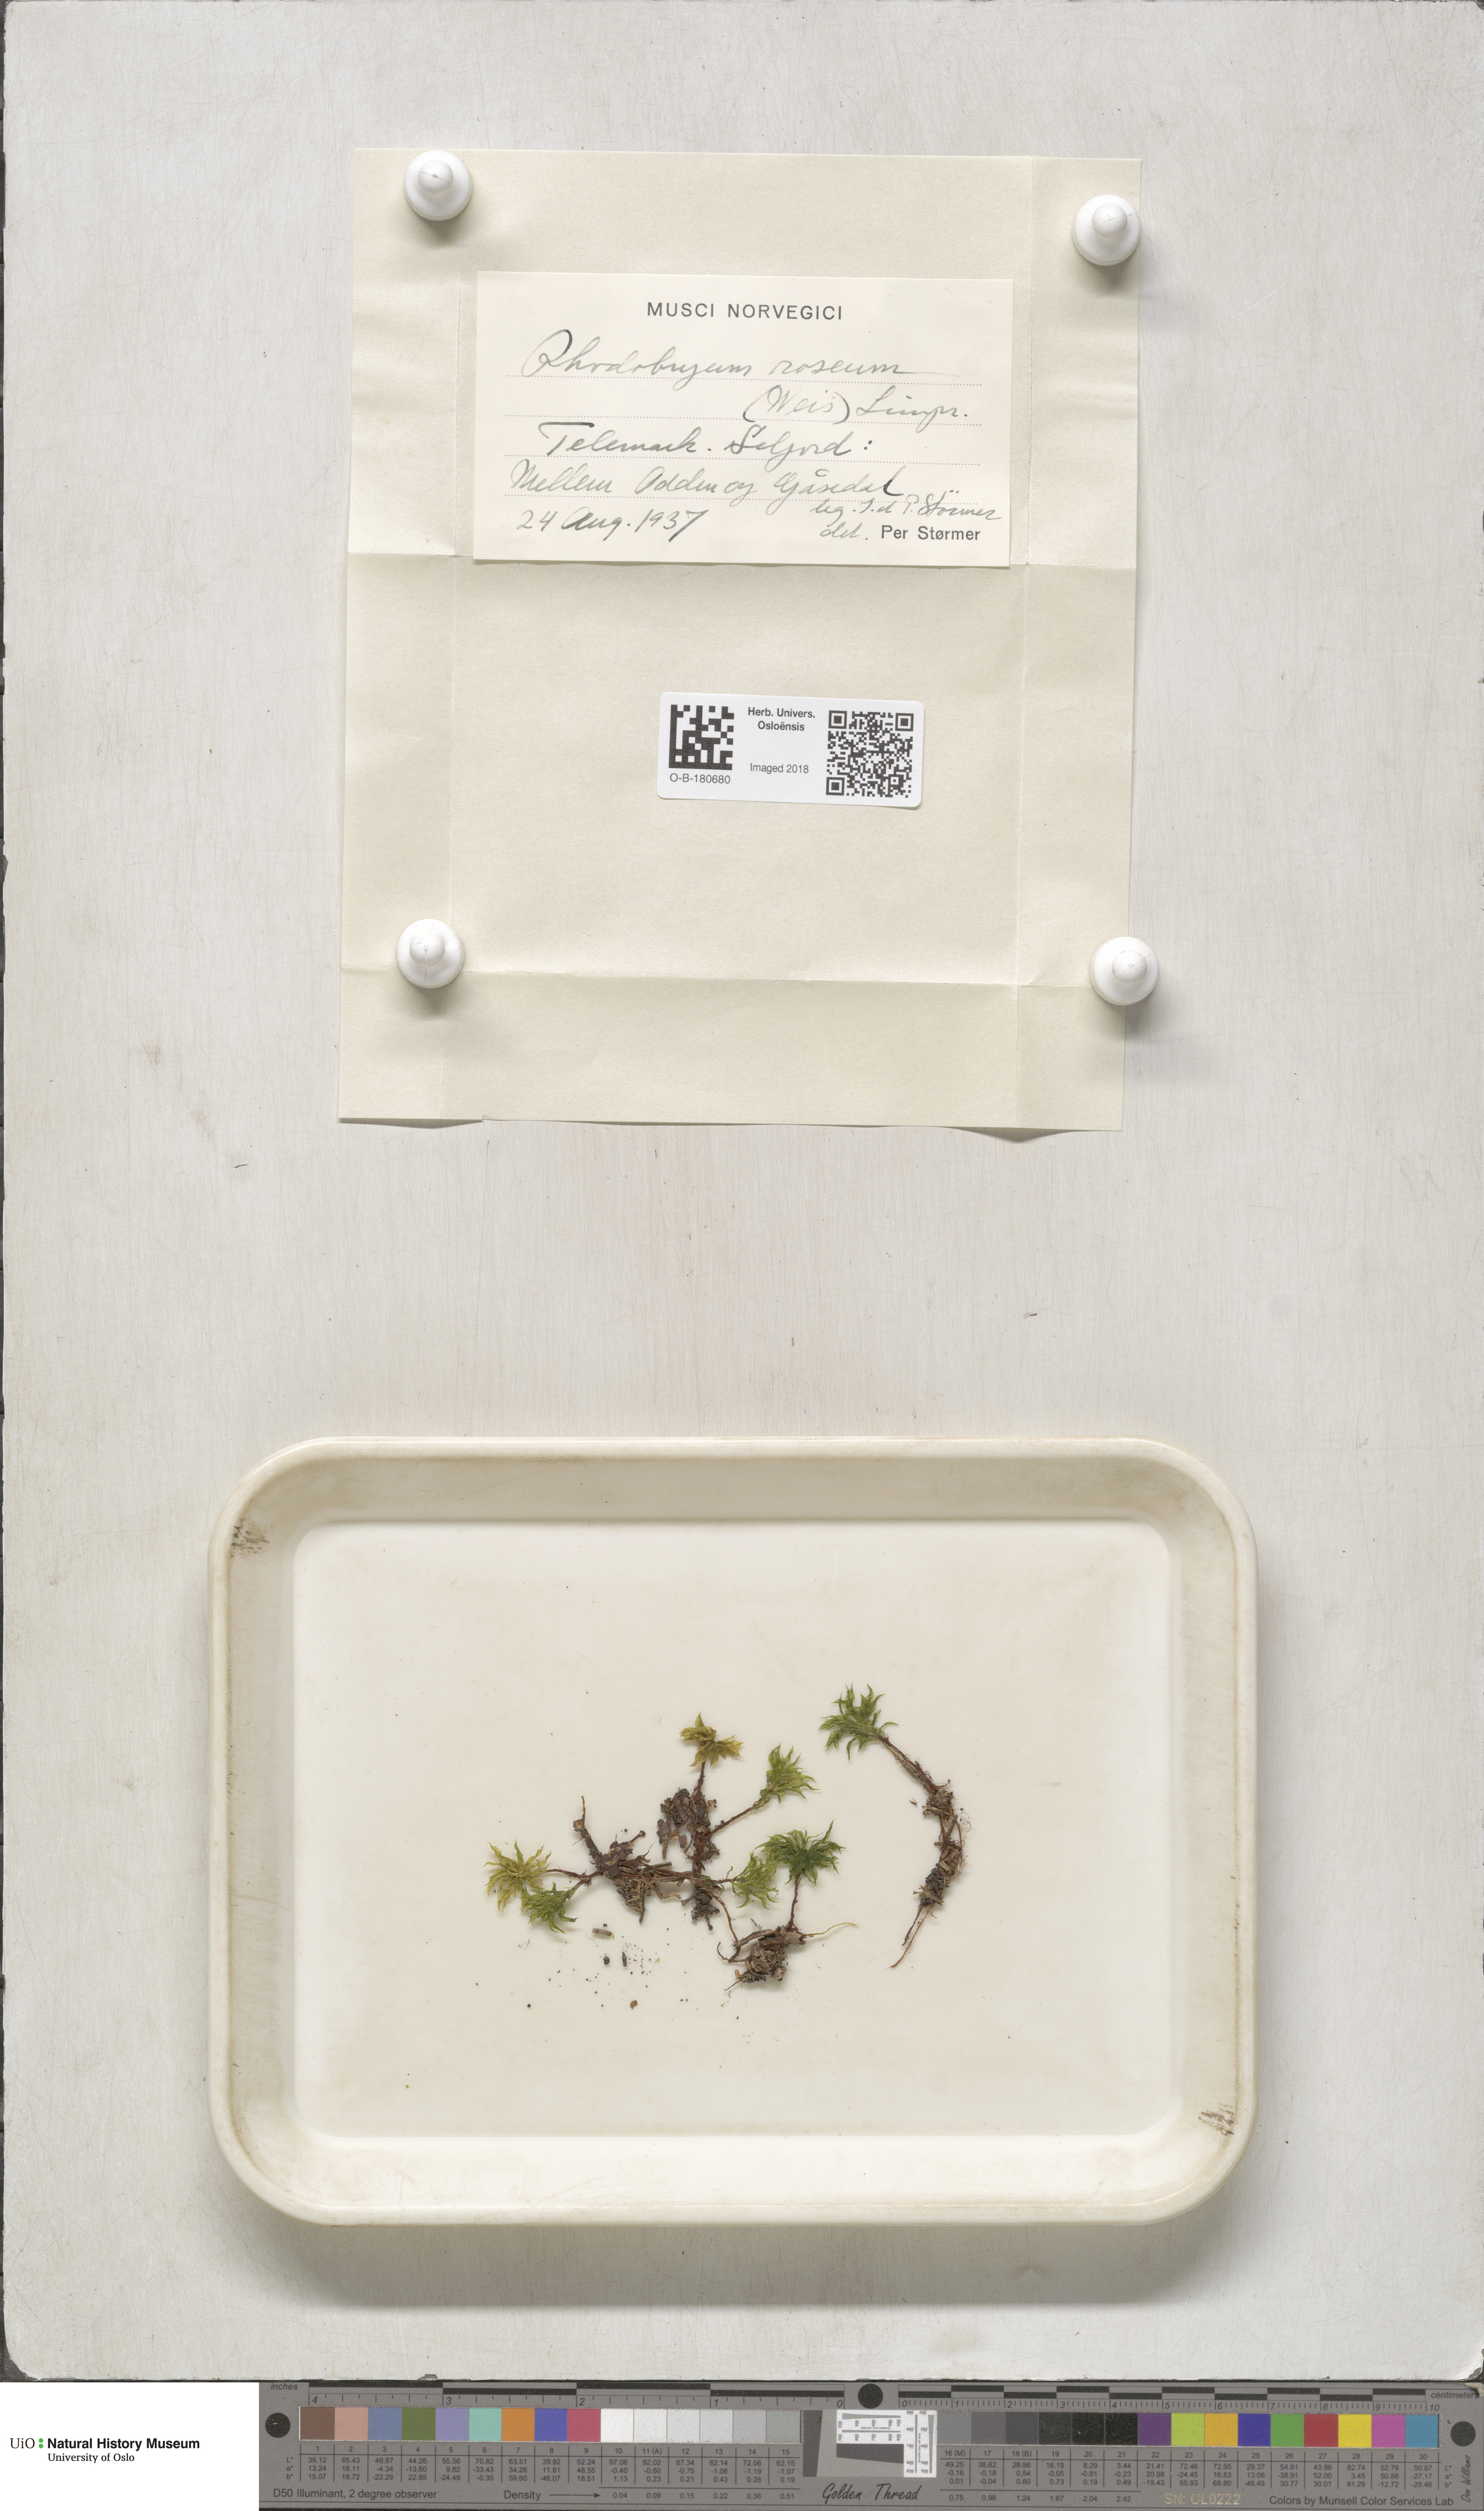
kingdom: Plantae
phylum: Bryophyta
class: Bryopsida
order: Bryales
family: Bryaceae
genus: Rhodobryum
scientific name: Rhodobryum roseum
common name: Rose-moss
